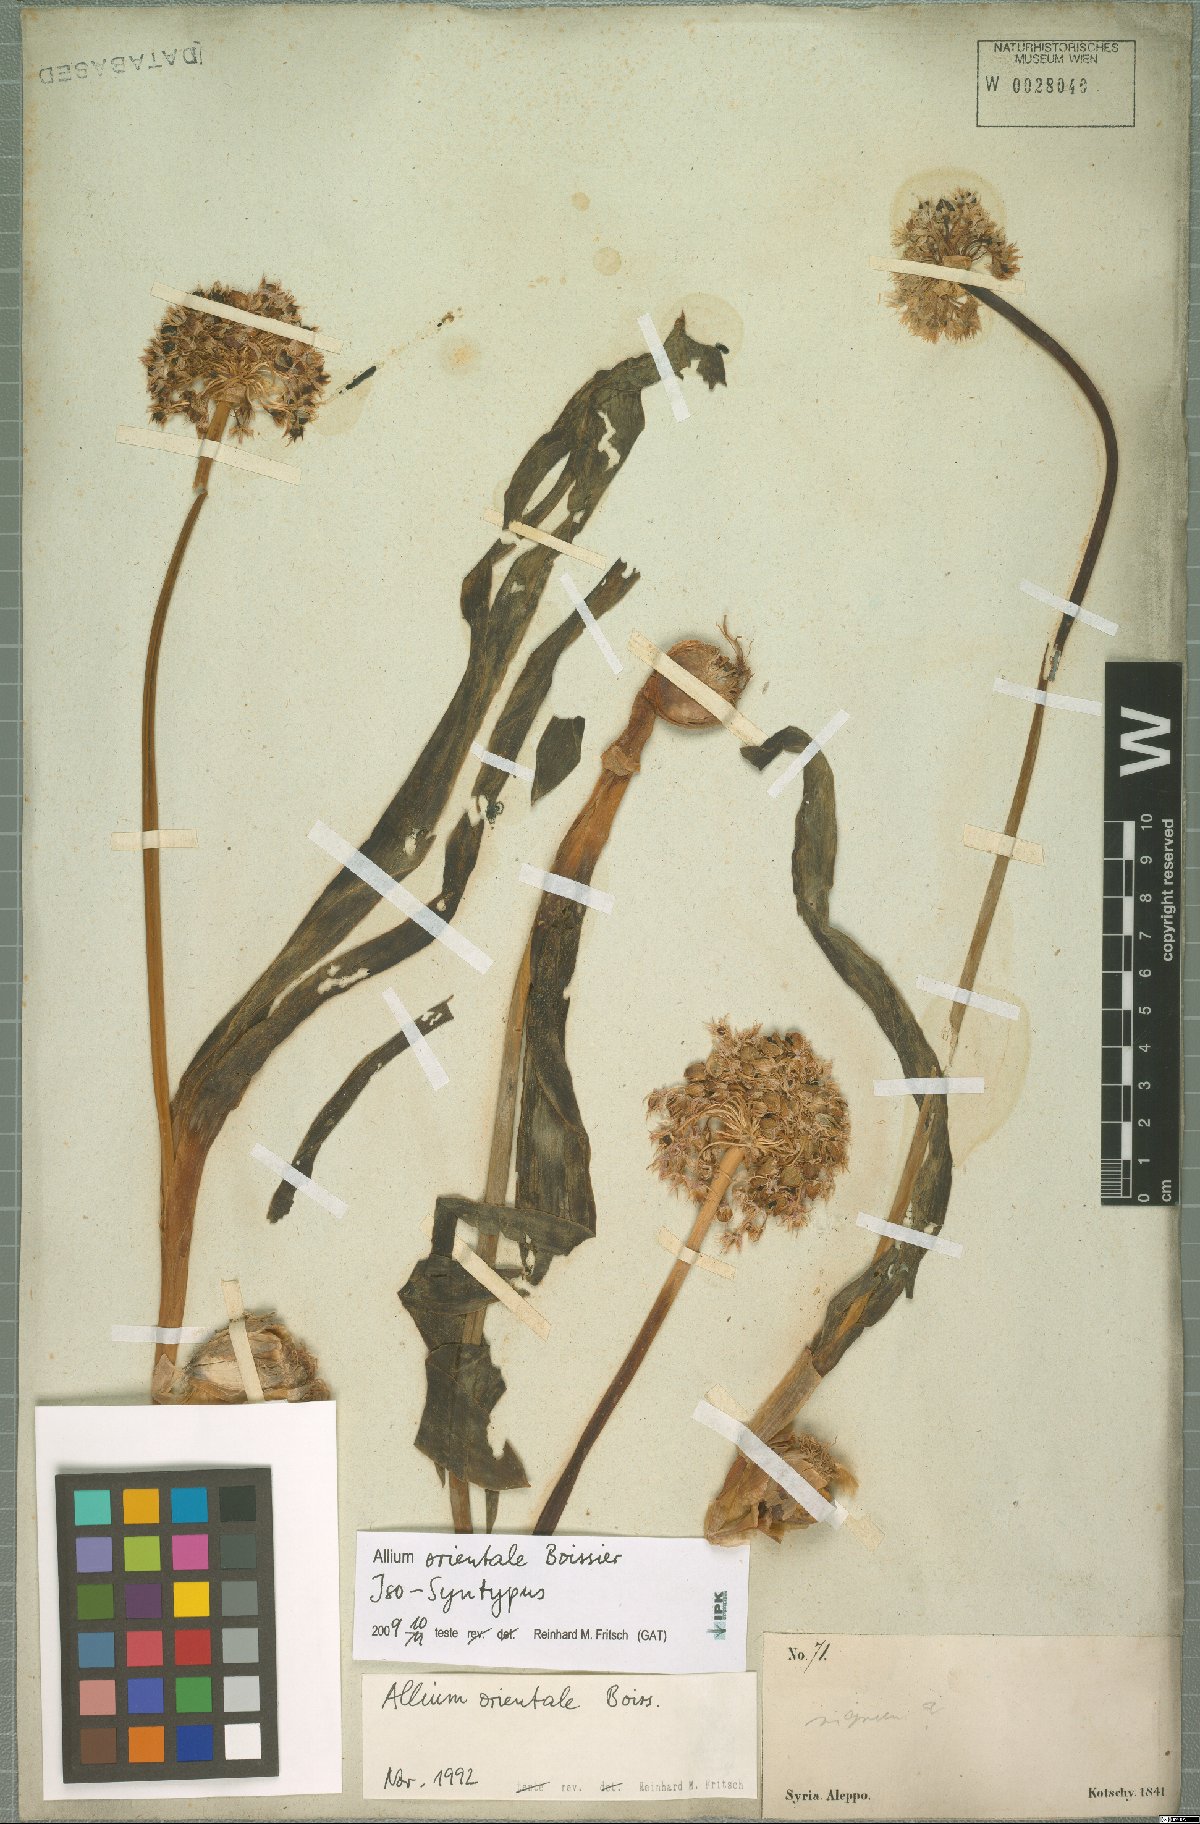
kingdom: Plantae
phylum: Tracheophyta
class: Liliopsida
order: Asparagales
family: Amaryllidaceae
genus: Allium
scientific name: Allium orientale
